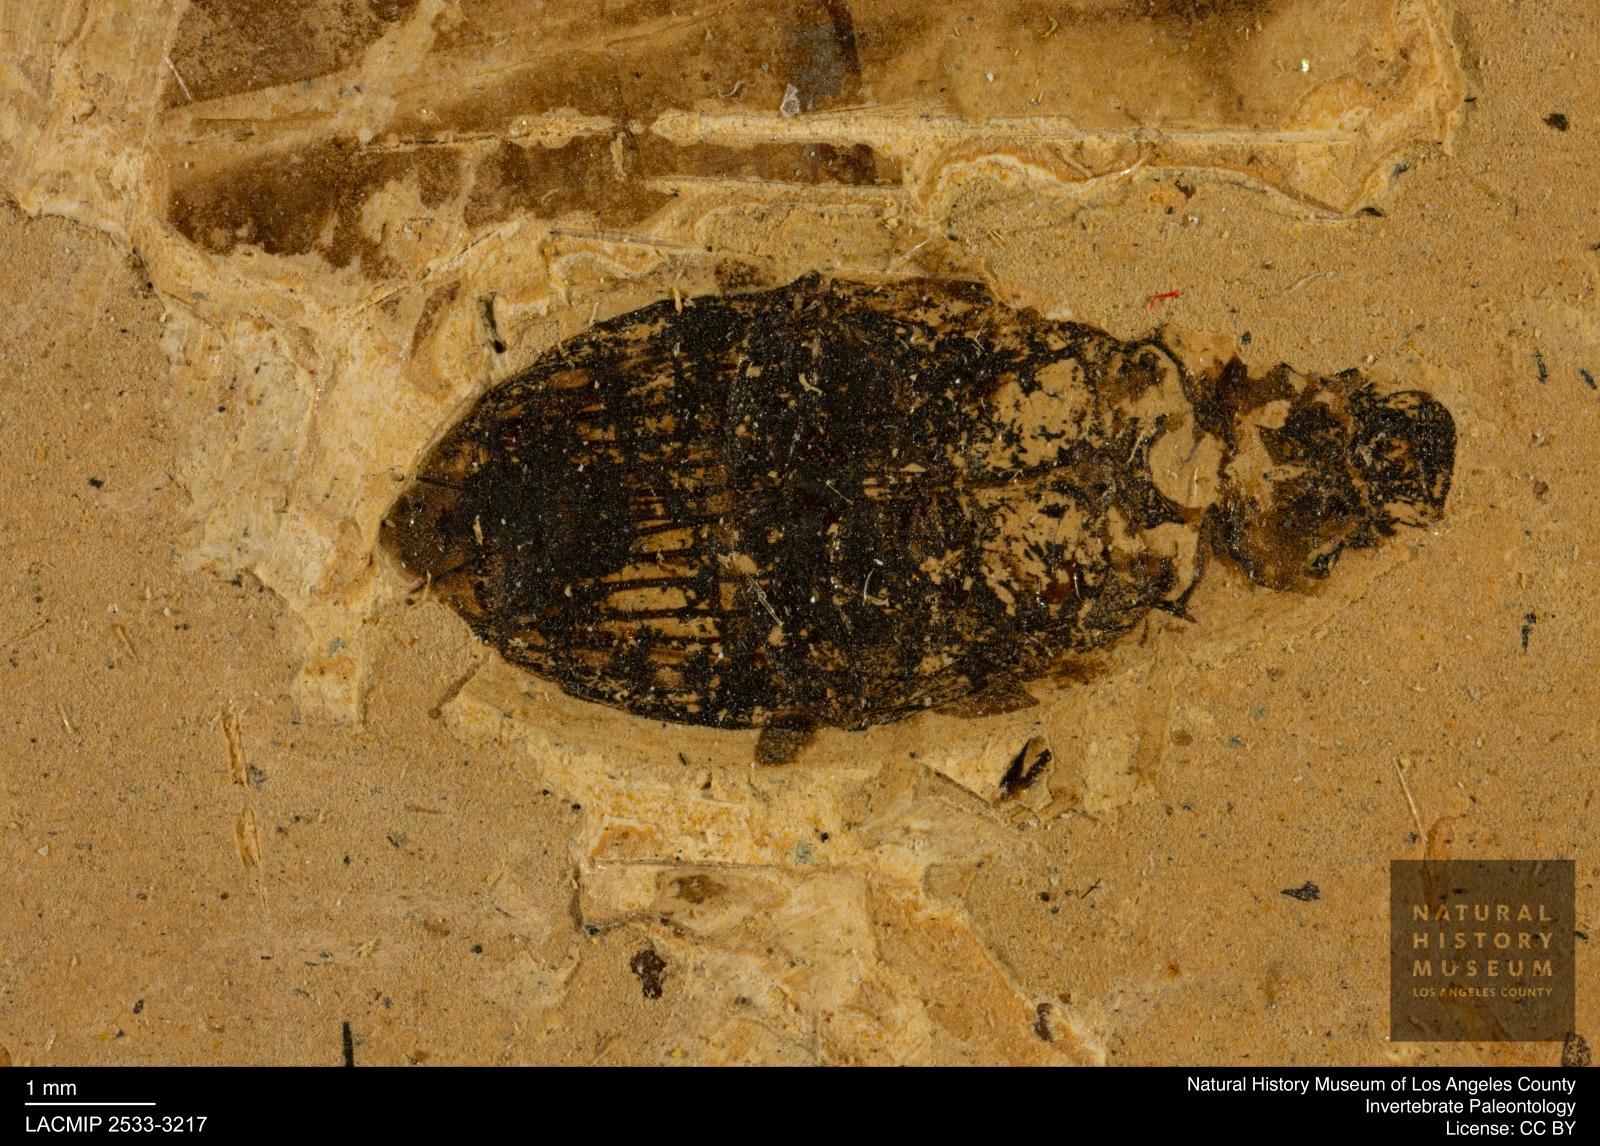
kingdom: Animalia
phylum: Arthropoda
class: Insecta
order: Coleoptera
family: Hydrophilidae
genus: Berosus
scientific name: Berosus morticinus
